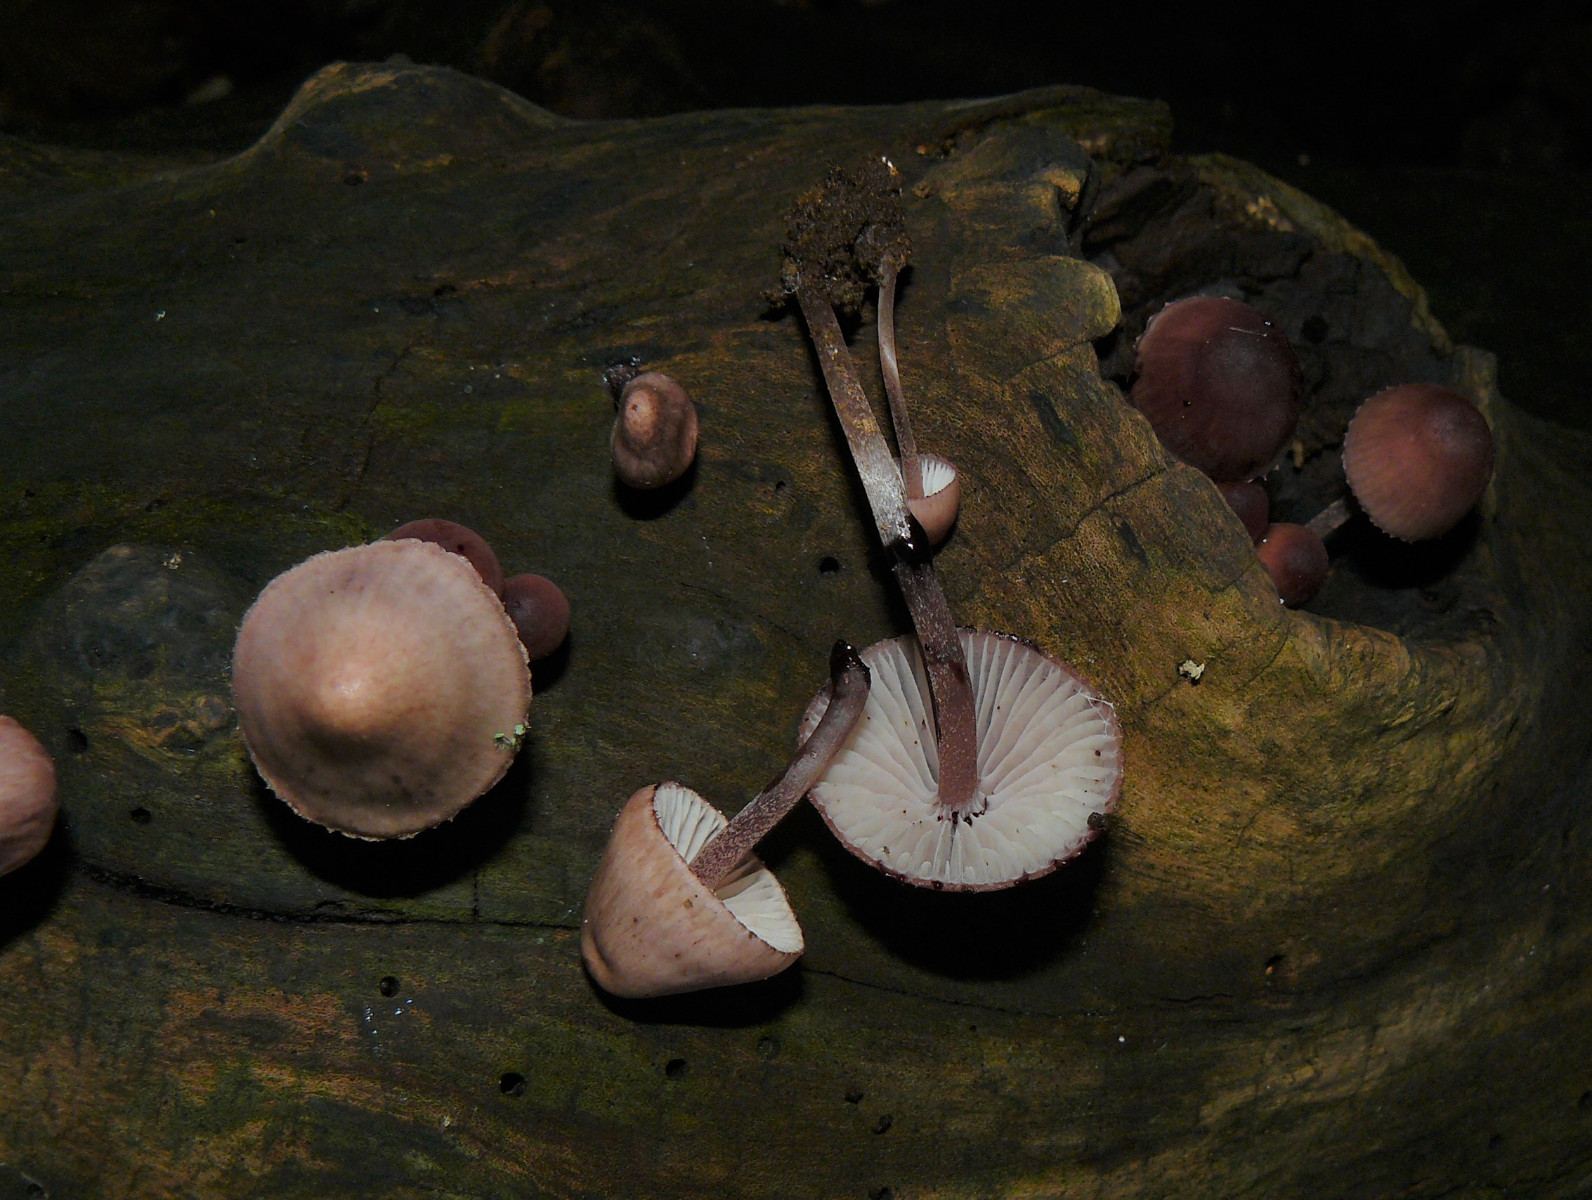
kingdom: Fungi
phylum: Basidiomycota
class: Agaricomycetes
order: Agaricales
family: Mycenaceae
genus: Mycena
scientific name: Mycena sanguinolenta
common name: rødmælket huesvamp
